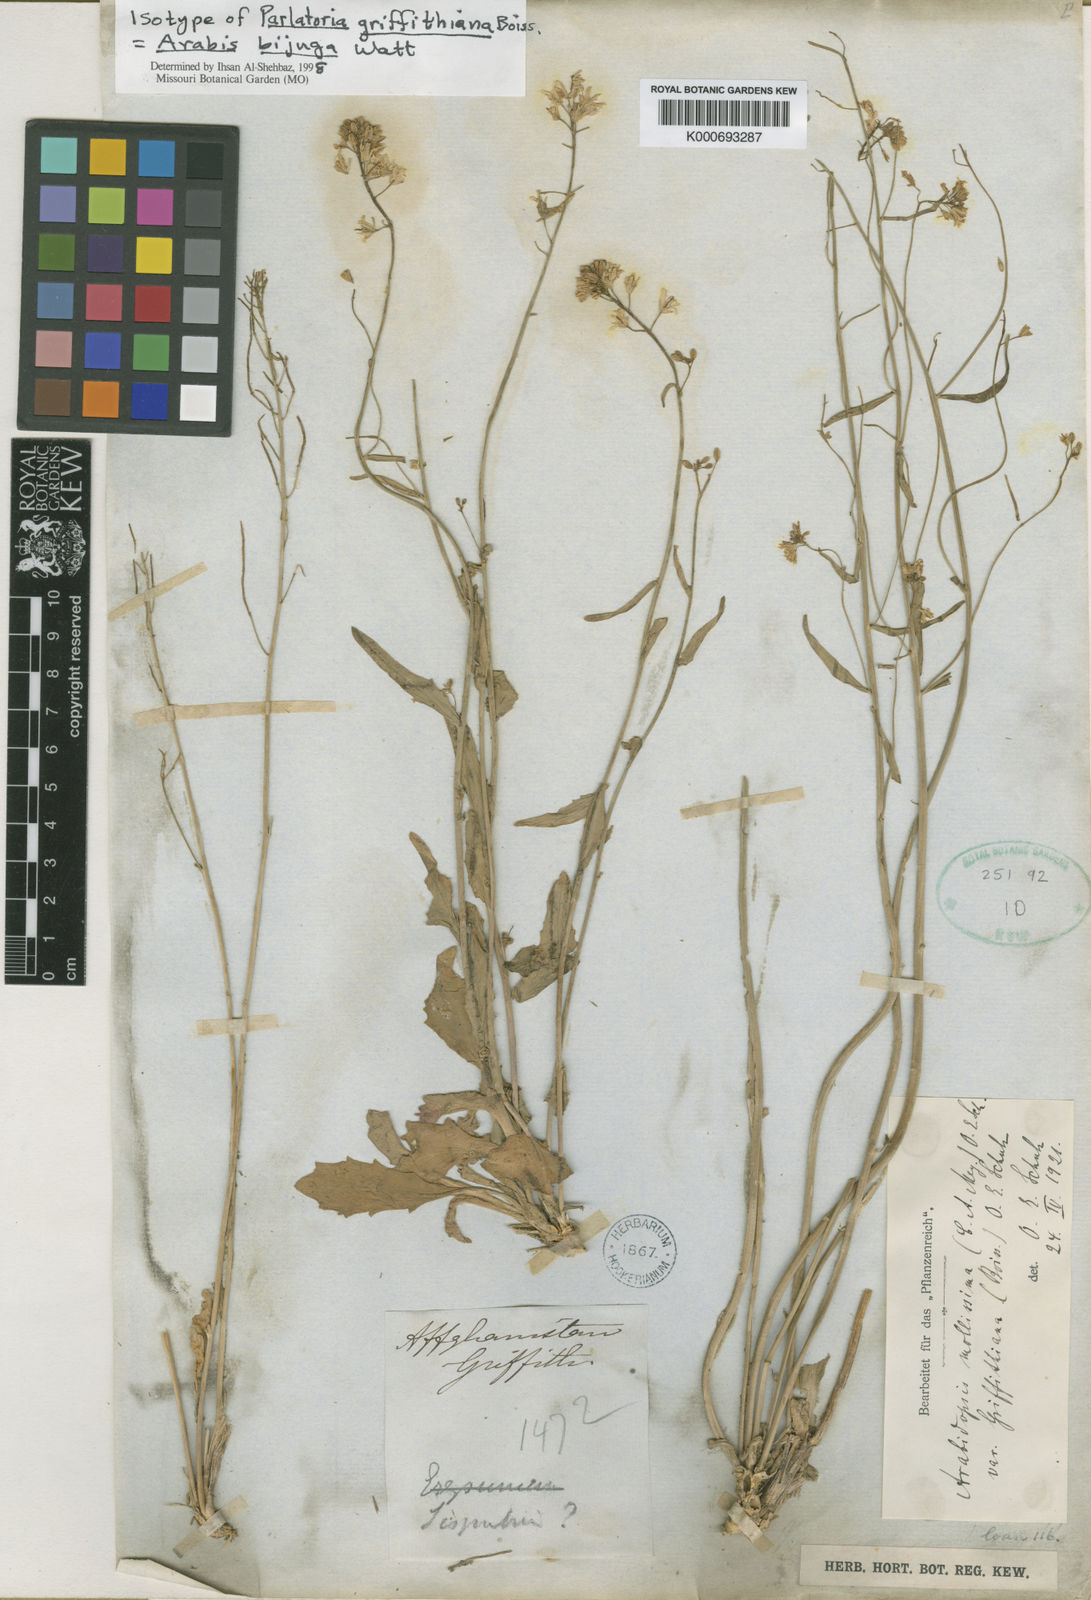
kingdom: Plantae
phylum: Tracheophyta
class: Magnoliopsida
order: Brassicales
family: Brassicaceae
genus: Arabis
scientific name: Arabis bijuga
